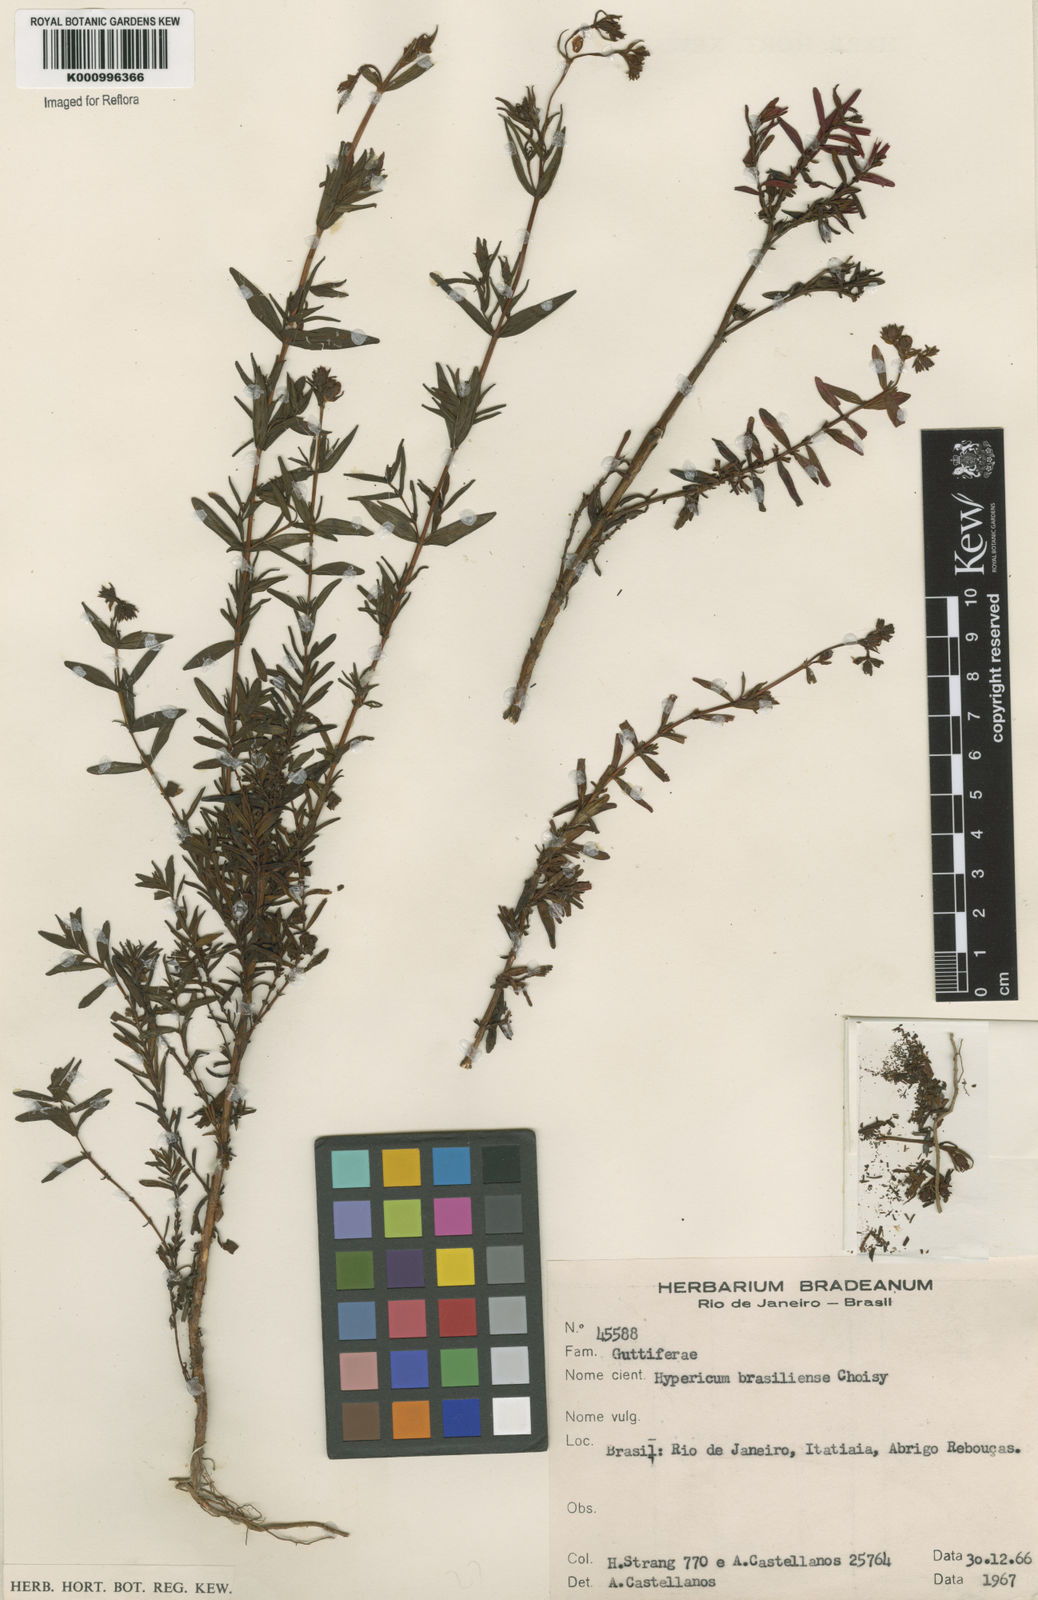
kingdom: Plantae
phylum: Tracheophyta
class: Magnoliopsida
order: Malpighiales
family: Hypericaceae
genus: Hypericum
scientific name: Hypericum brasiliense
